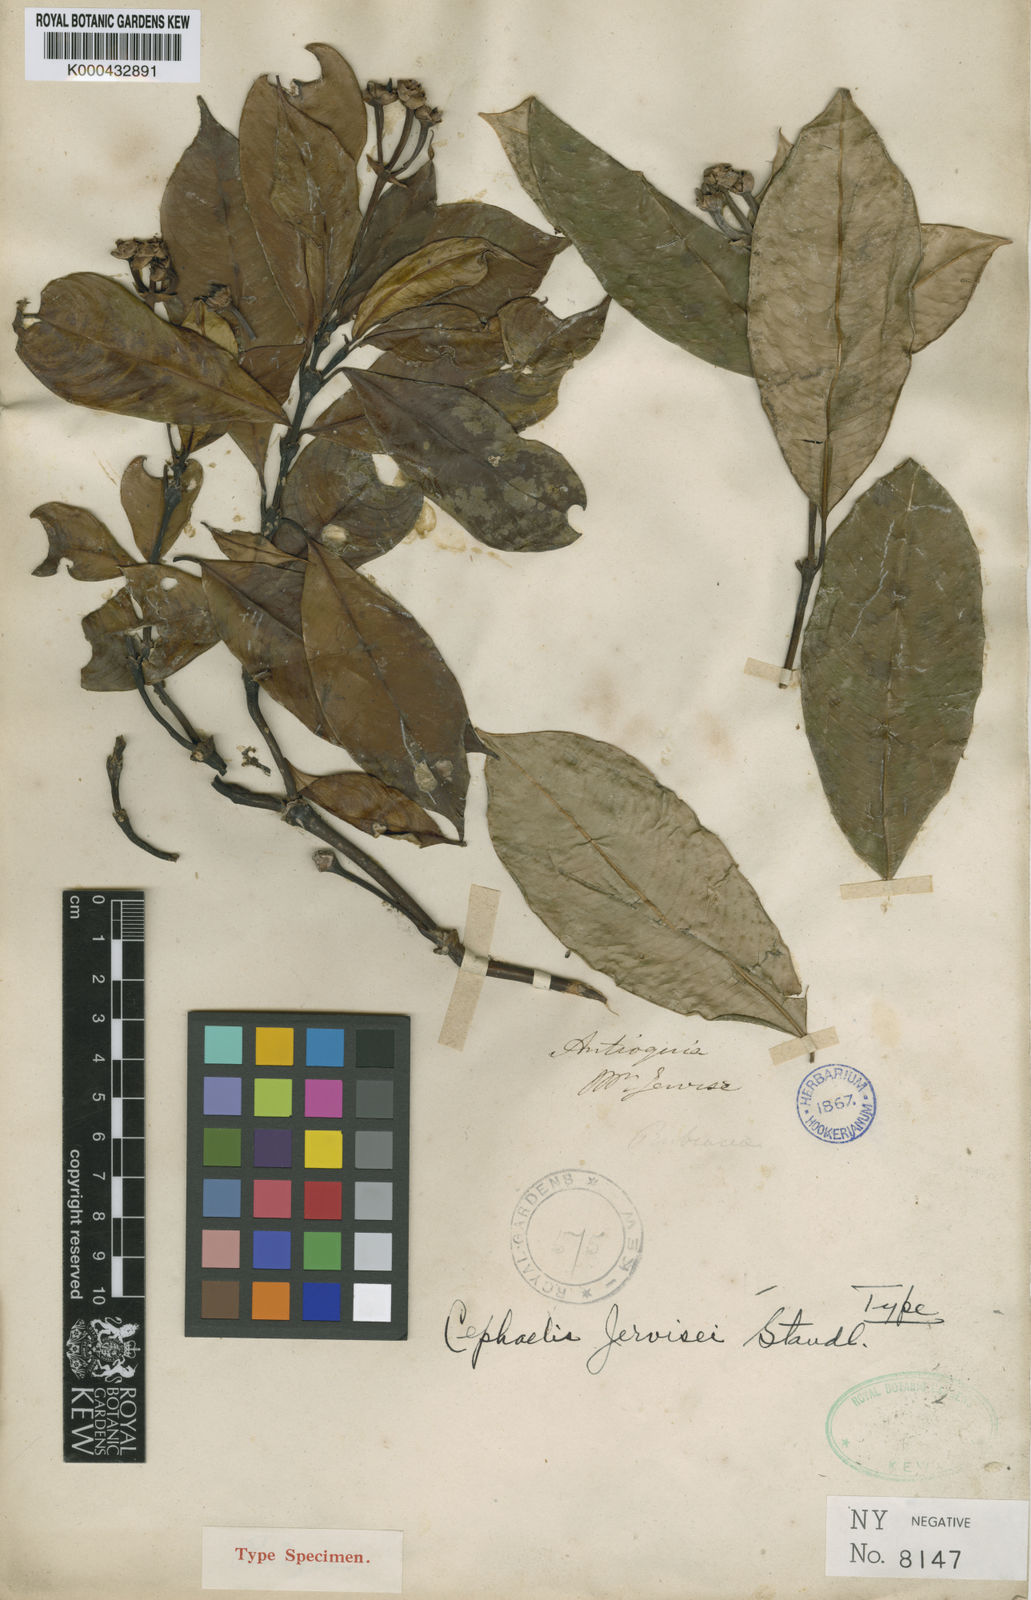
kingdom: Plantae
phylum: Tracheophyta
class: Magnoliopsida
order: Gentianales
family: Rubiaceae
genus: Palicourea
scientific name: Palicourea jervisei
